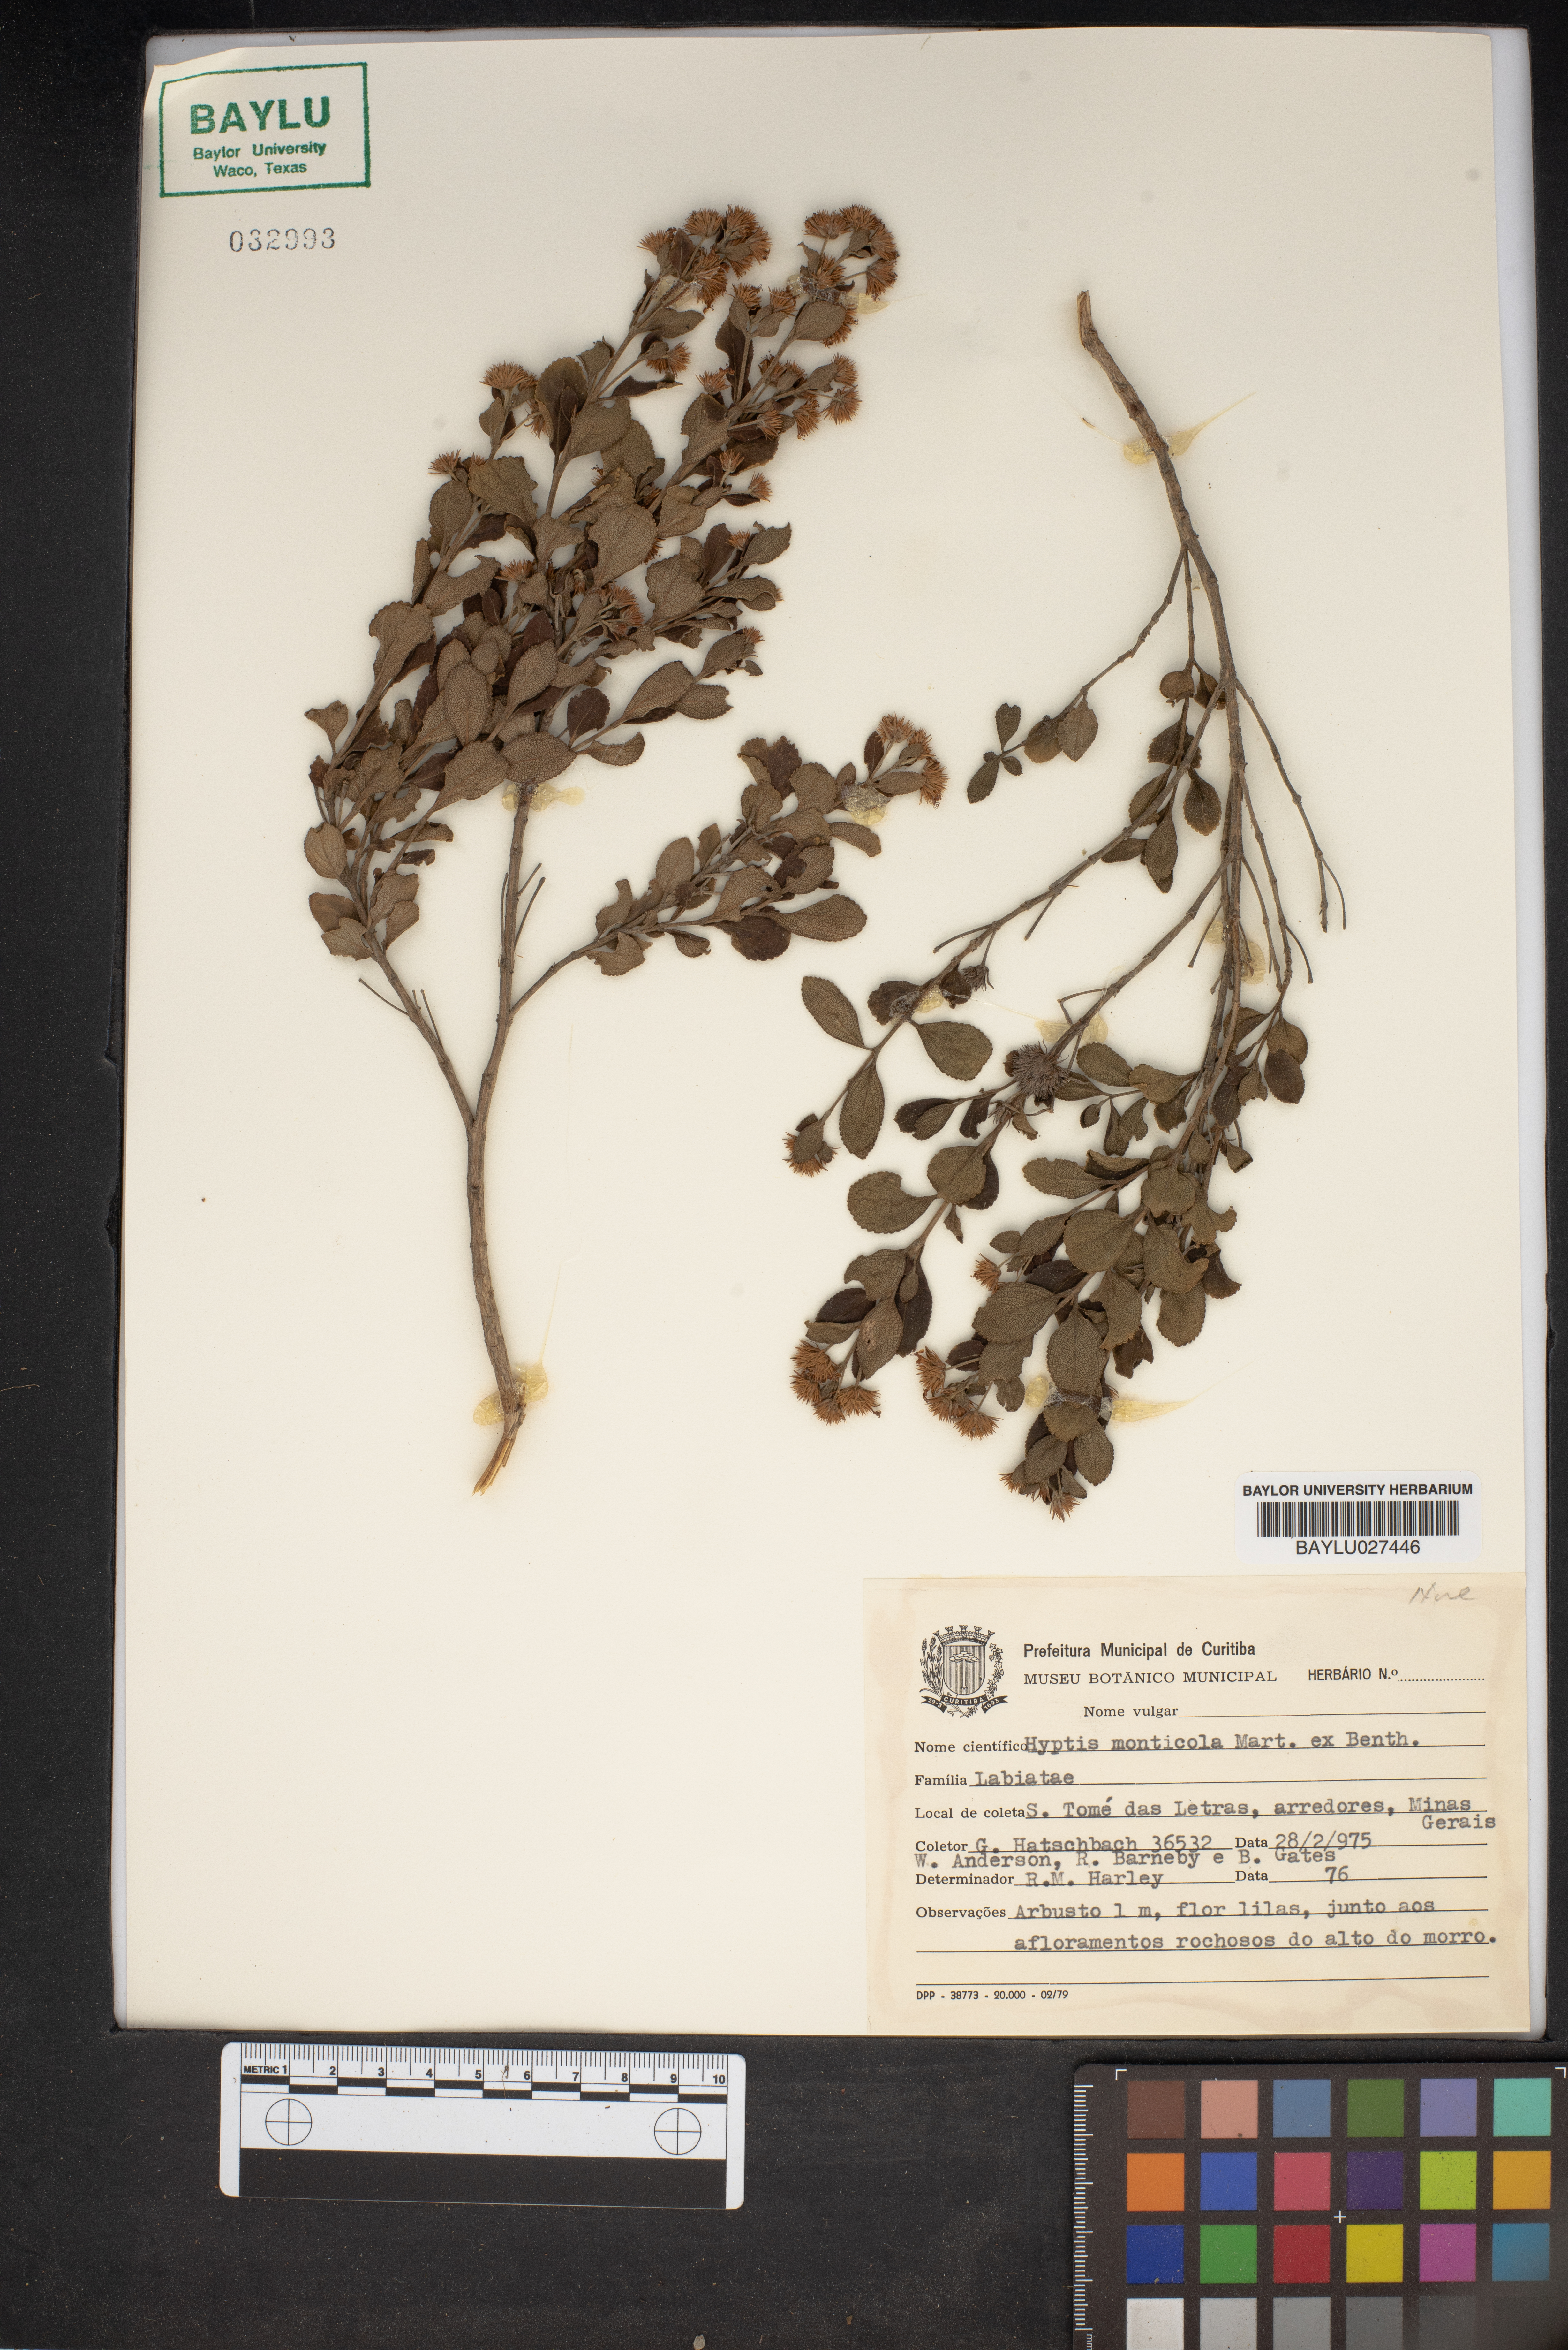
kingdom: Plantae
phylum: Tracheophyta
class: Magnoliopsida
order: Lamiales
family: Lamiaceae
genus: Hyptis
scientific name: Hyptis monticola
